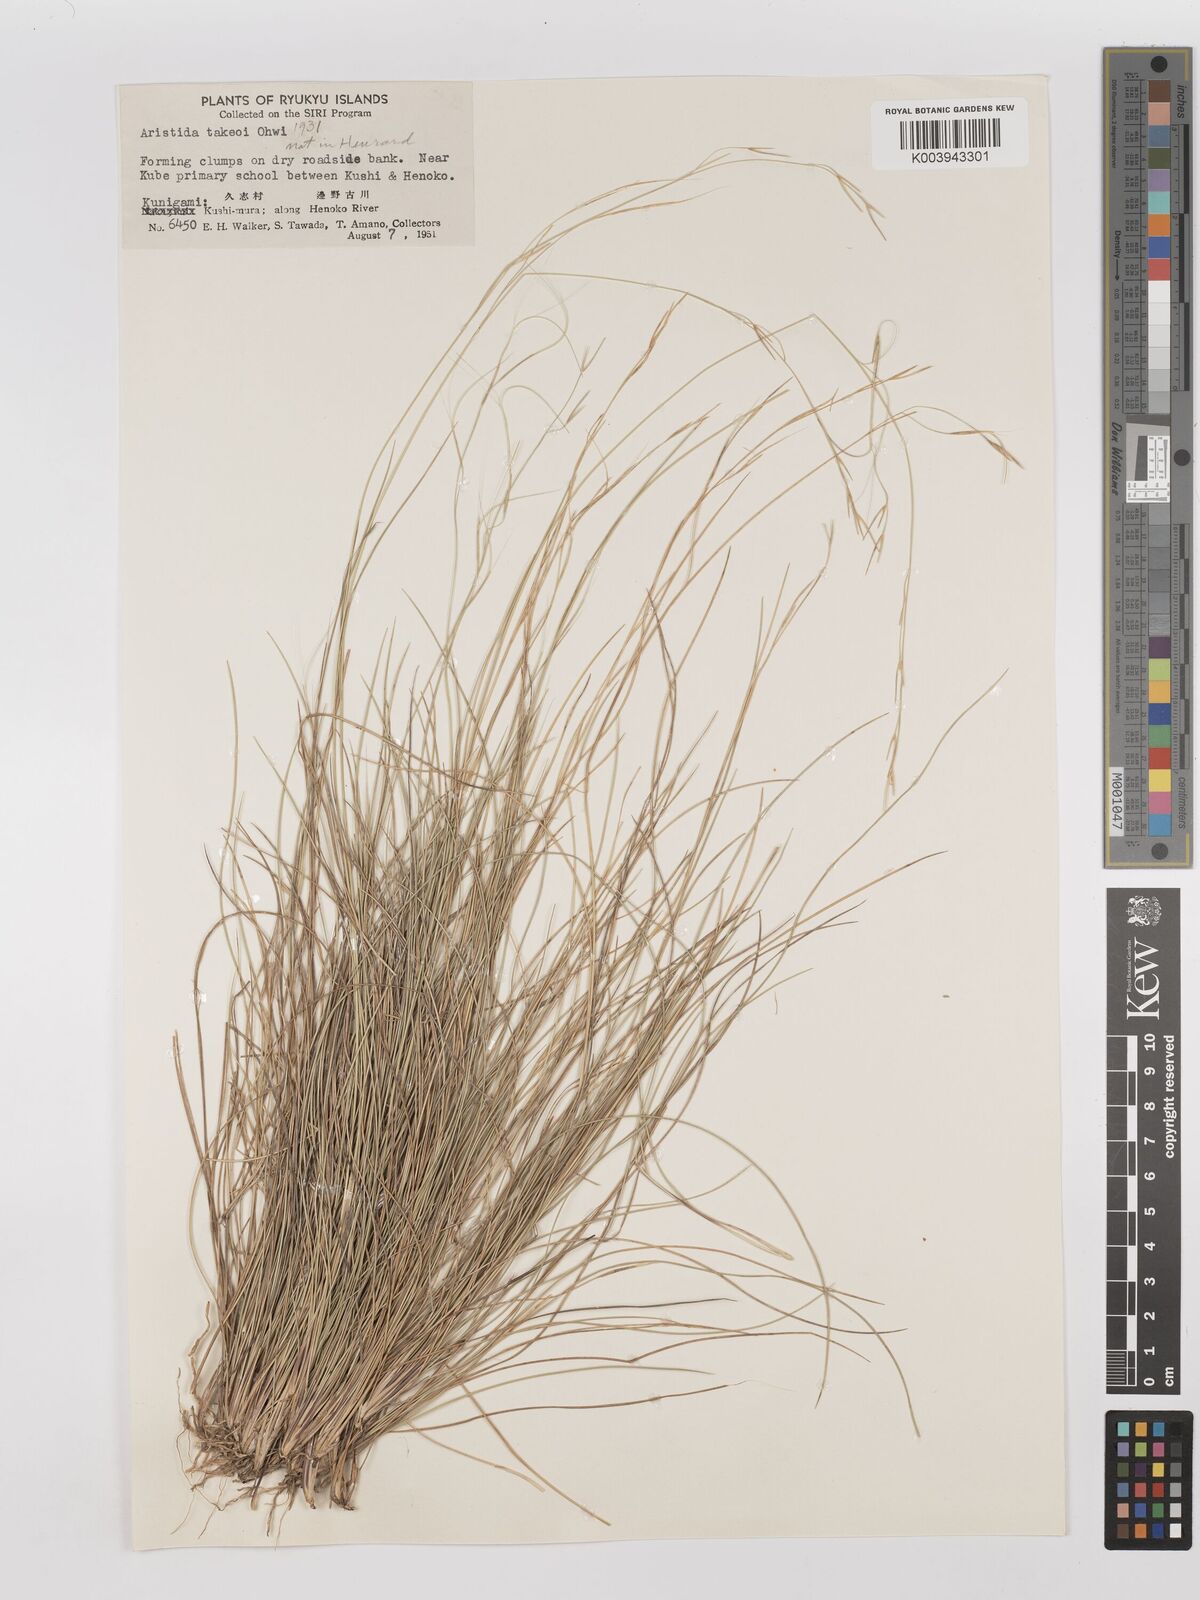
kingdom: Plantae
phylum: Tracheophyta
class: Liliopsida
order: Poales
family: Poaceae
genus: Aristida
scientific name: Aristida takeoi
